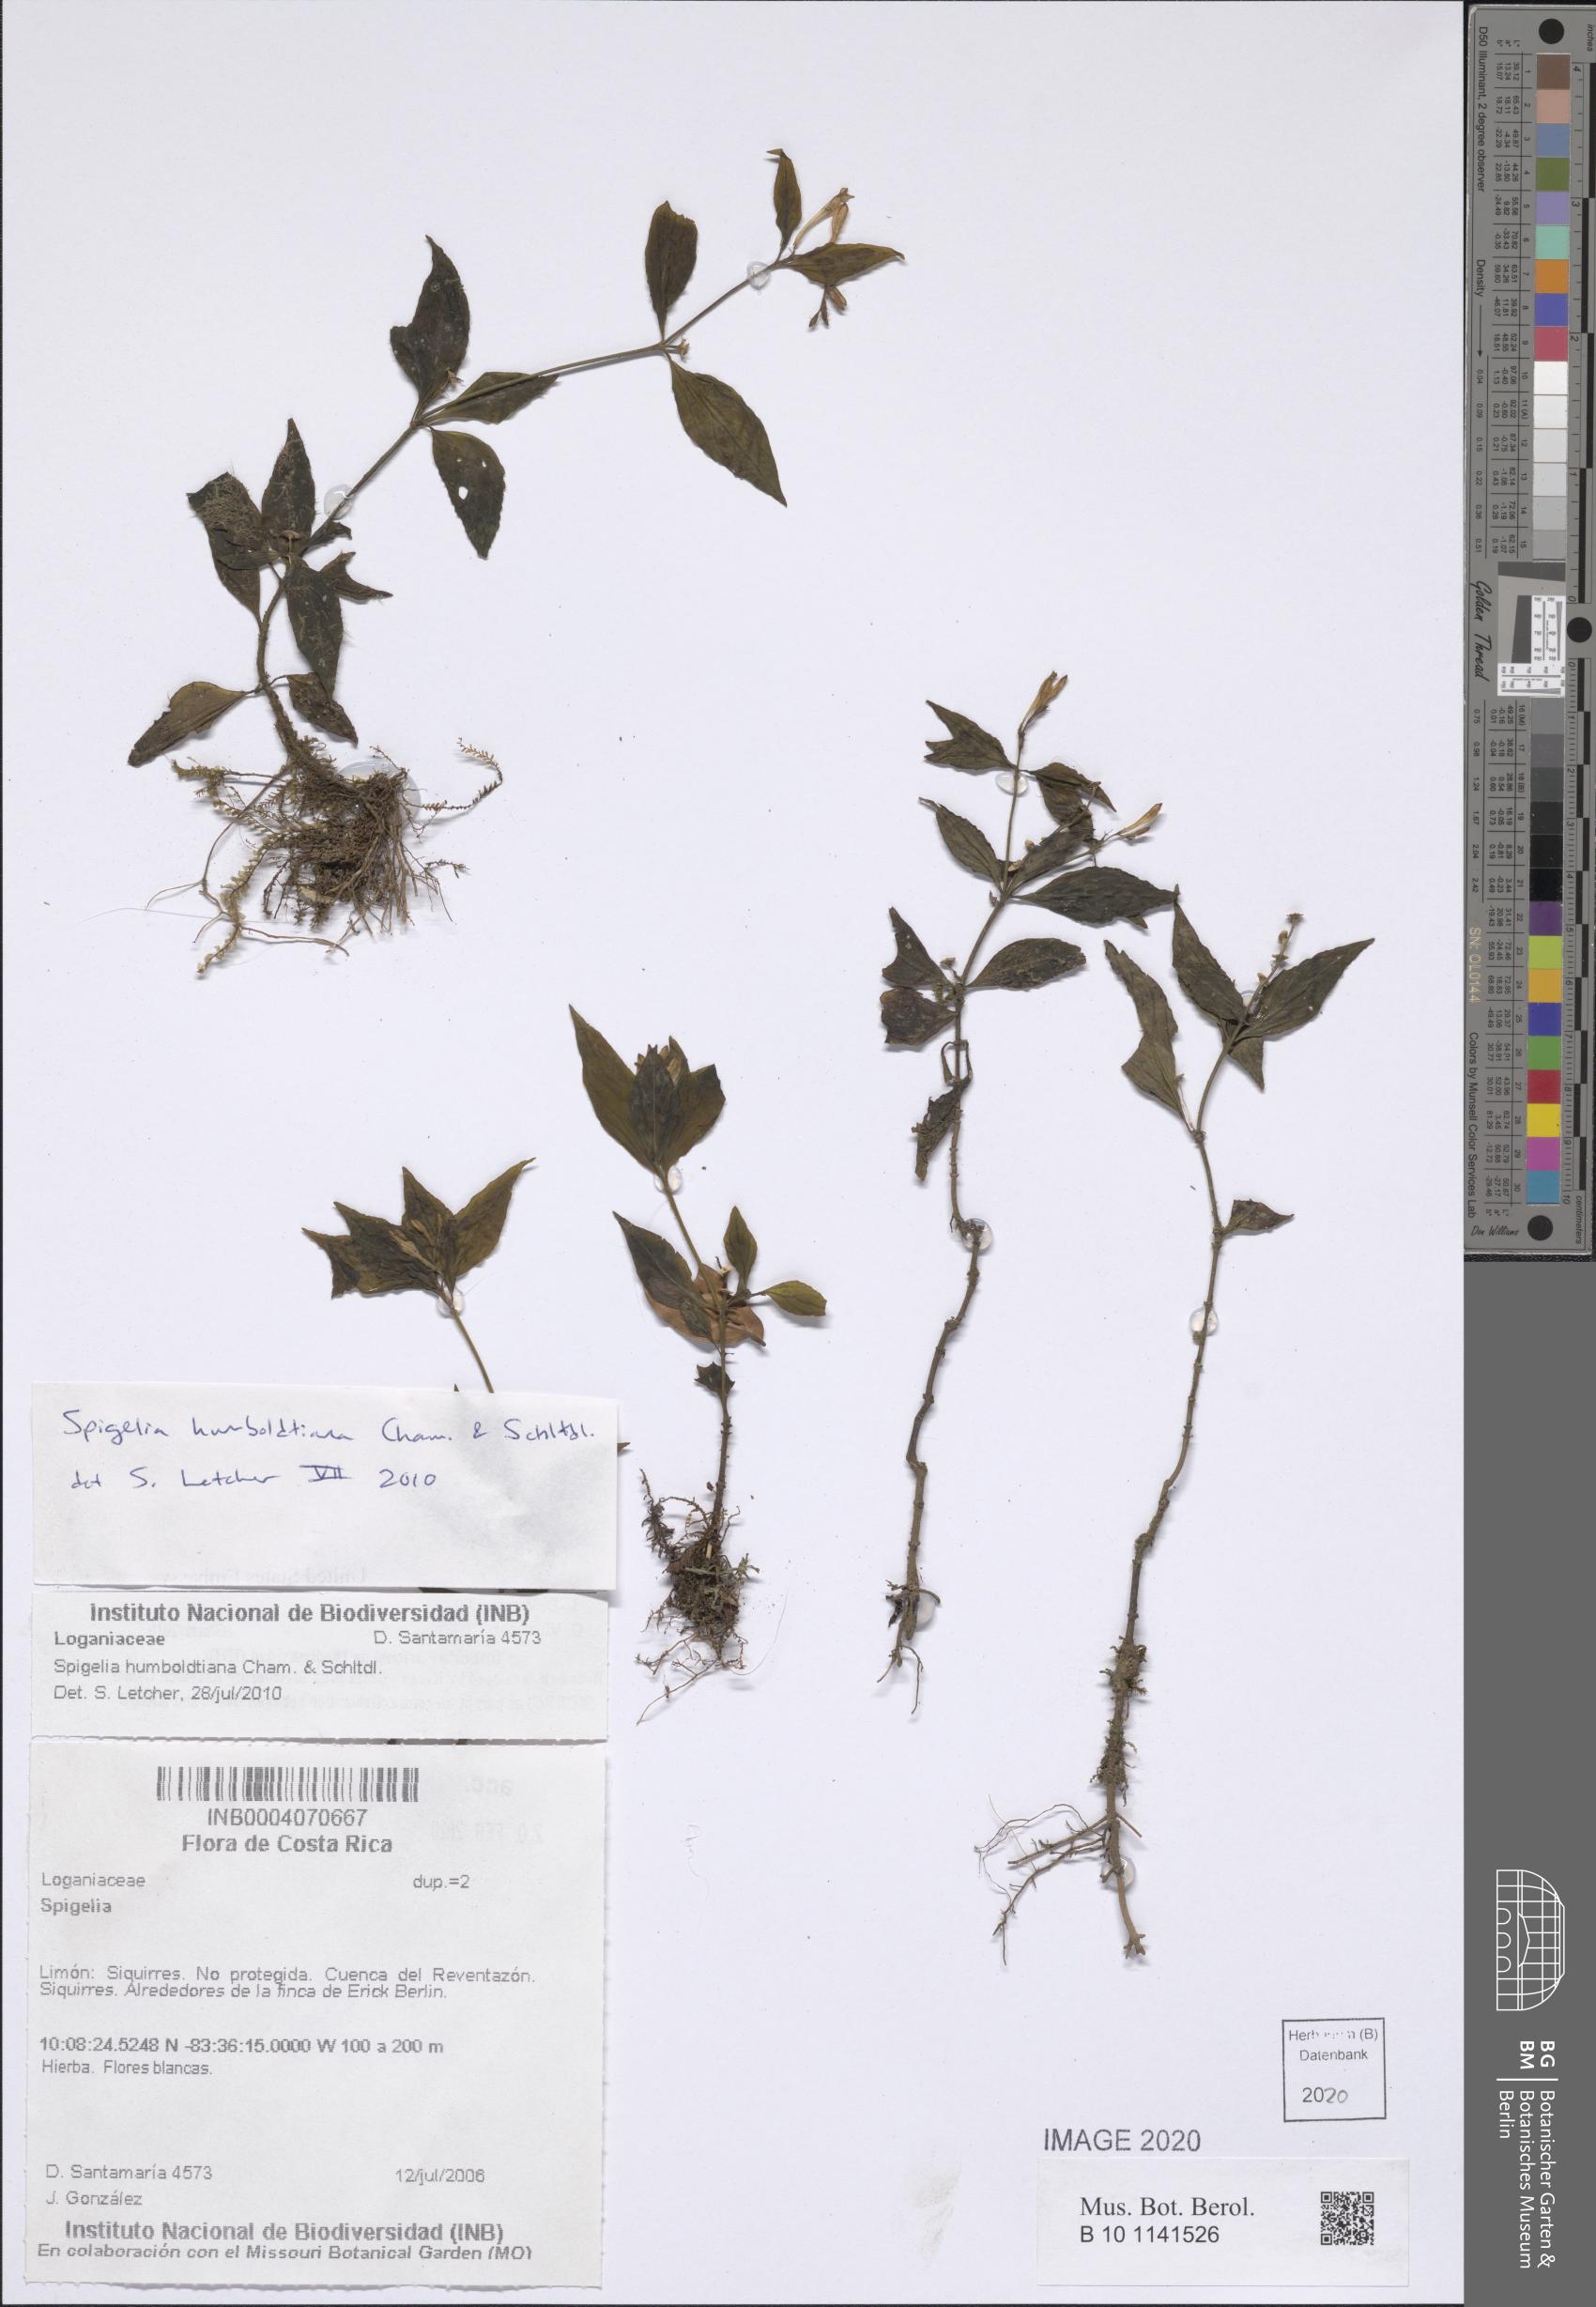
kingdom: Plantae
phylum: Tracheophyta
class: Magnoliopsida
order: Gentianales
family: Loganiaceae
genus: Spigelia
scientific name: Spigelia humboldtiana
